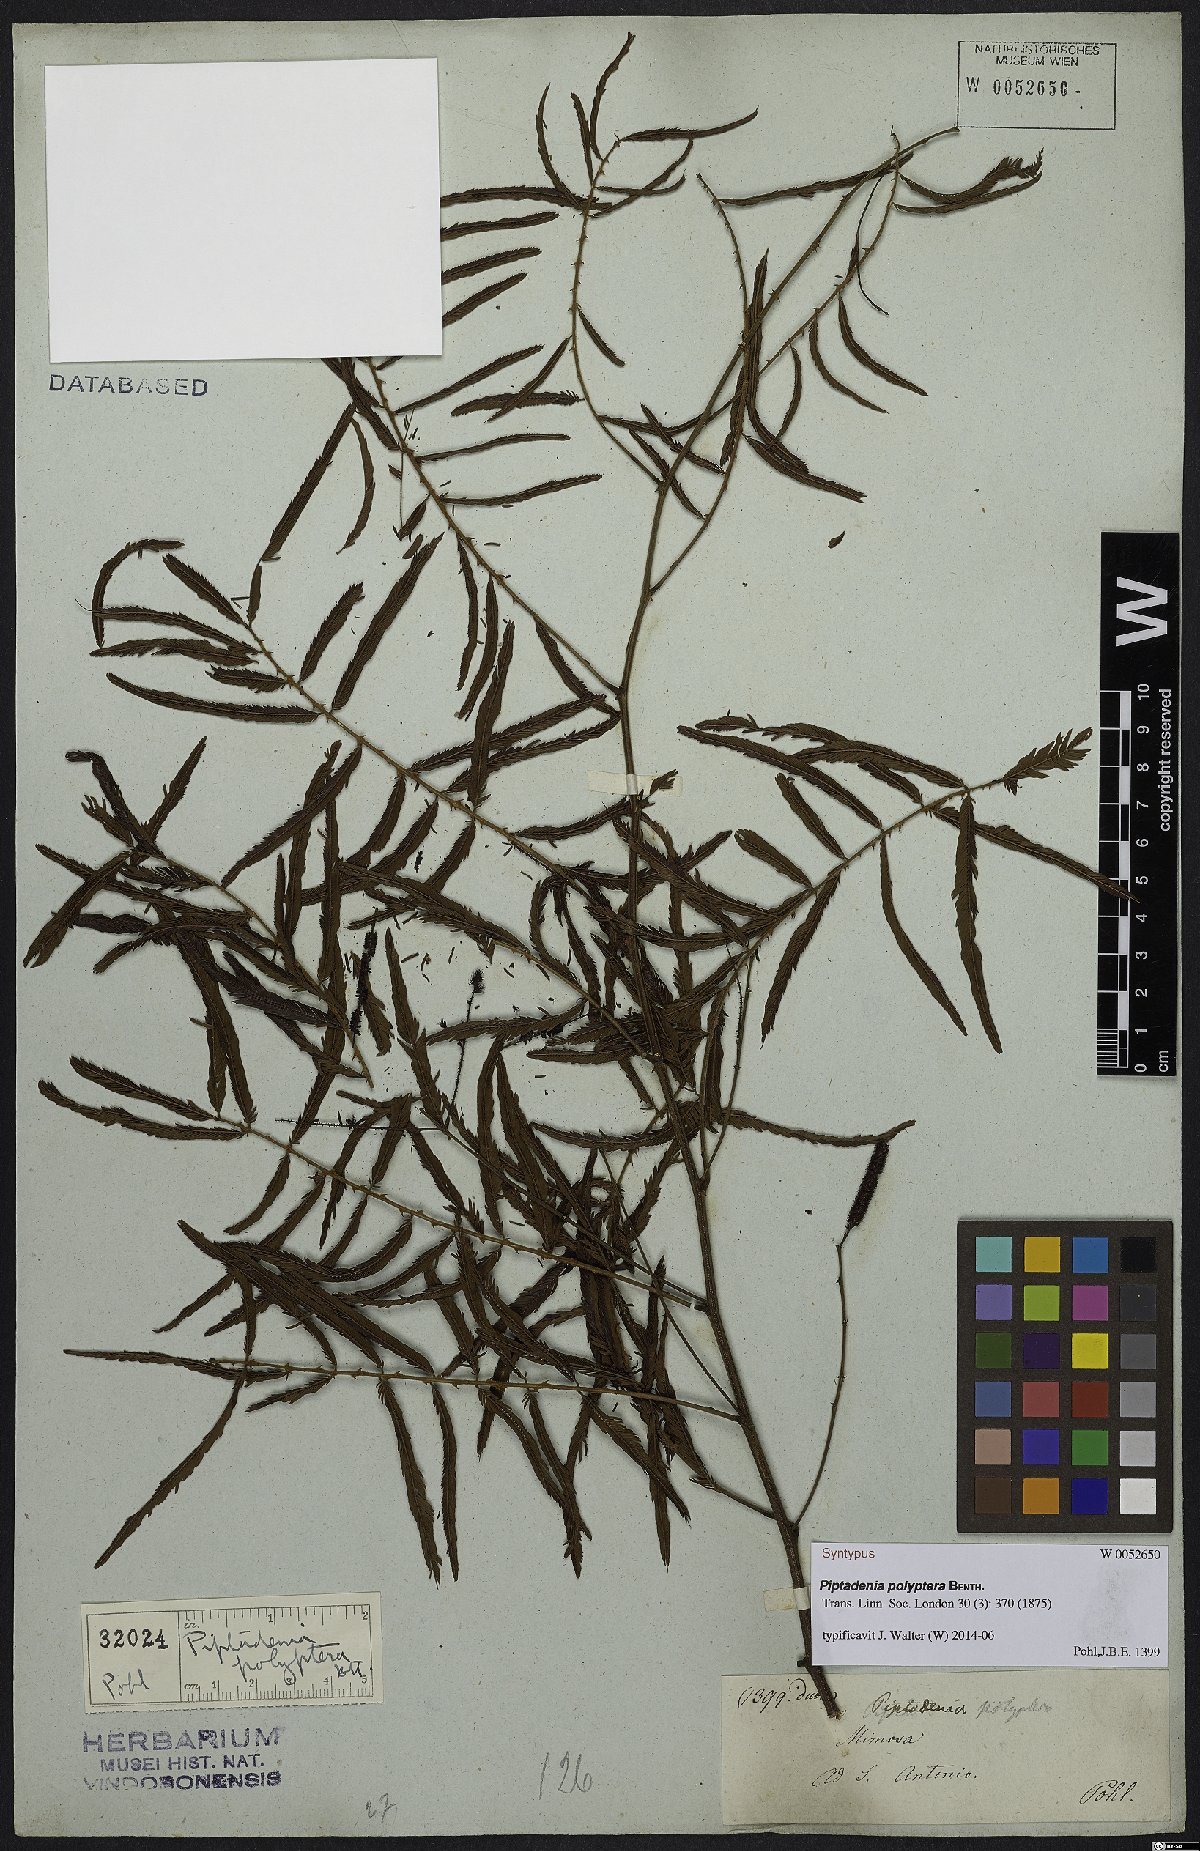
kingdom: Plantae
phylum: Tracheophyta
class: Magnoliopsida
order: Fabales
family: Fabaceae
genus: Piptadenia
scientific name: Piptadenia trisperma
